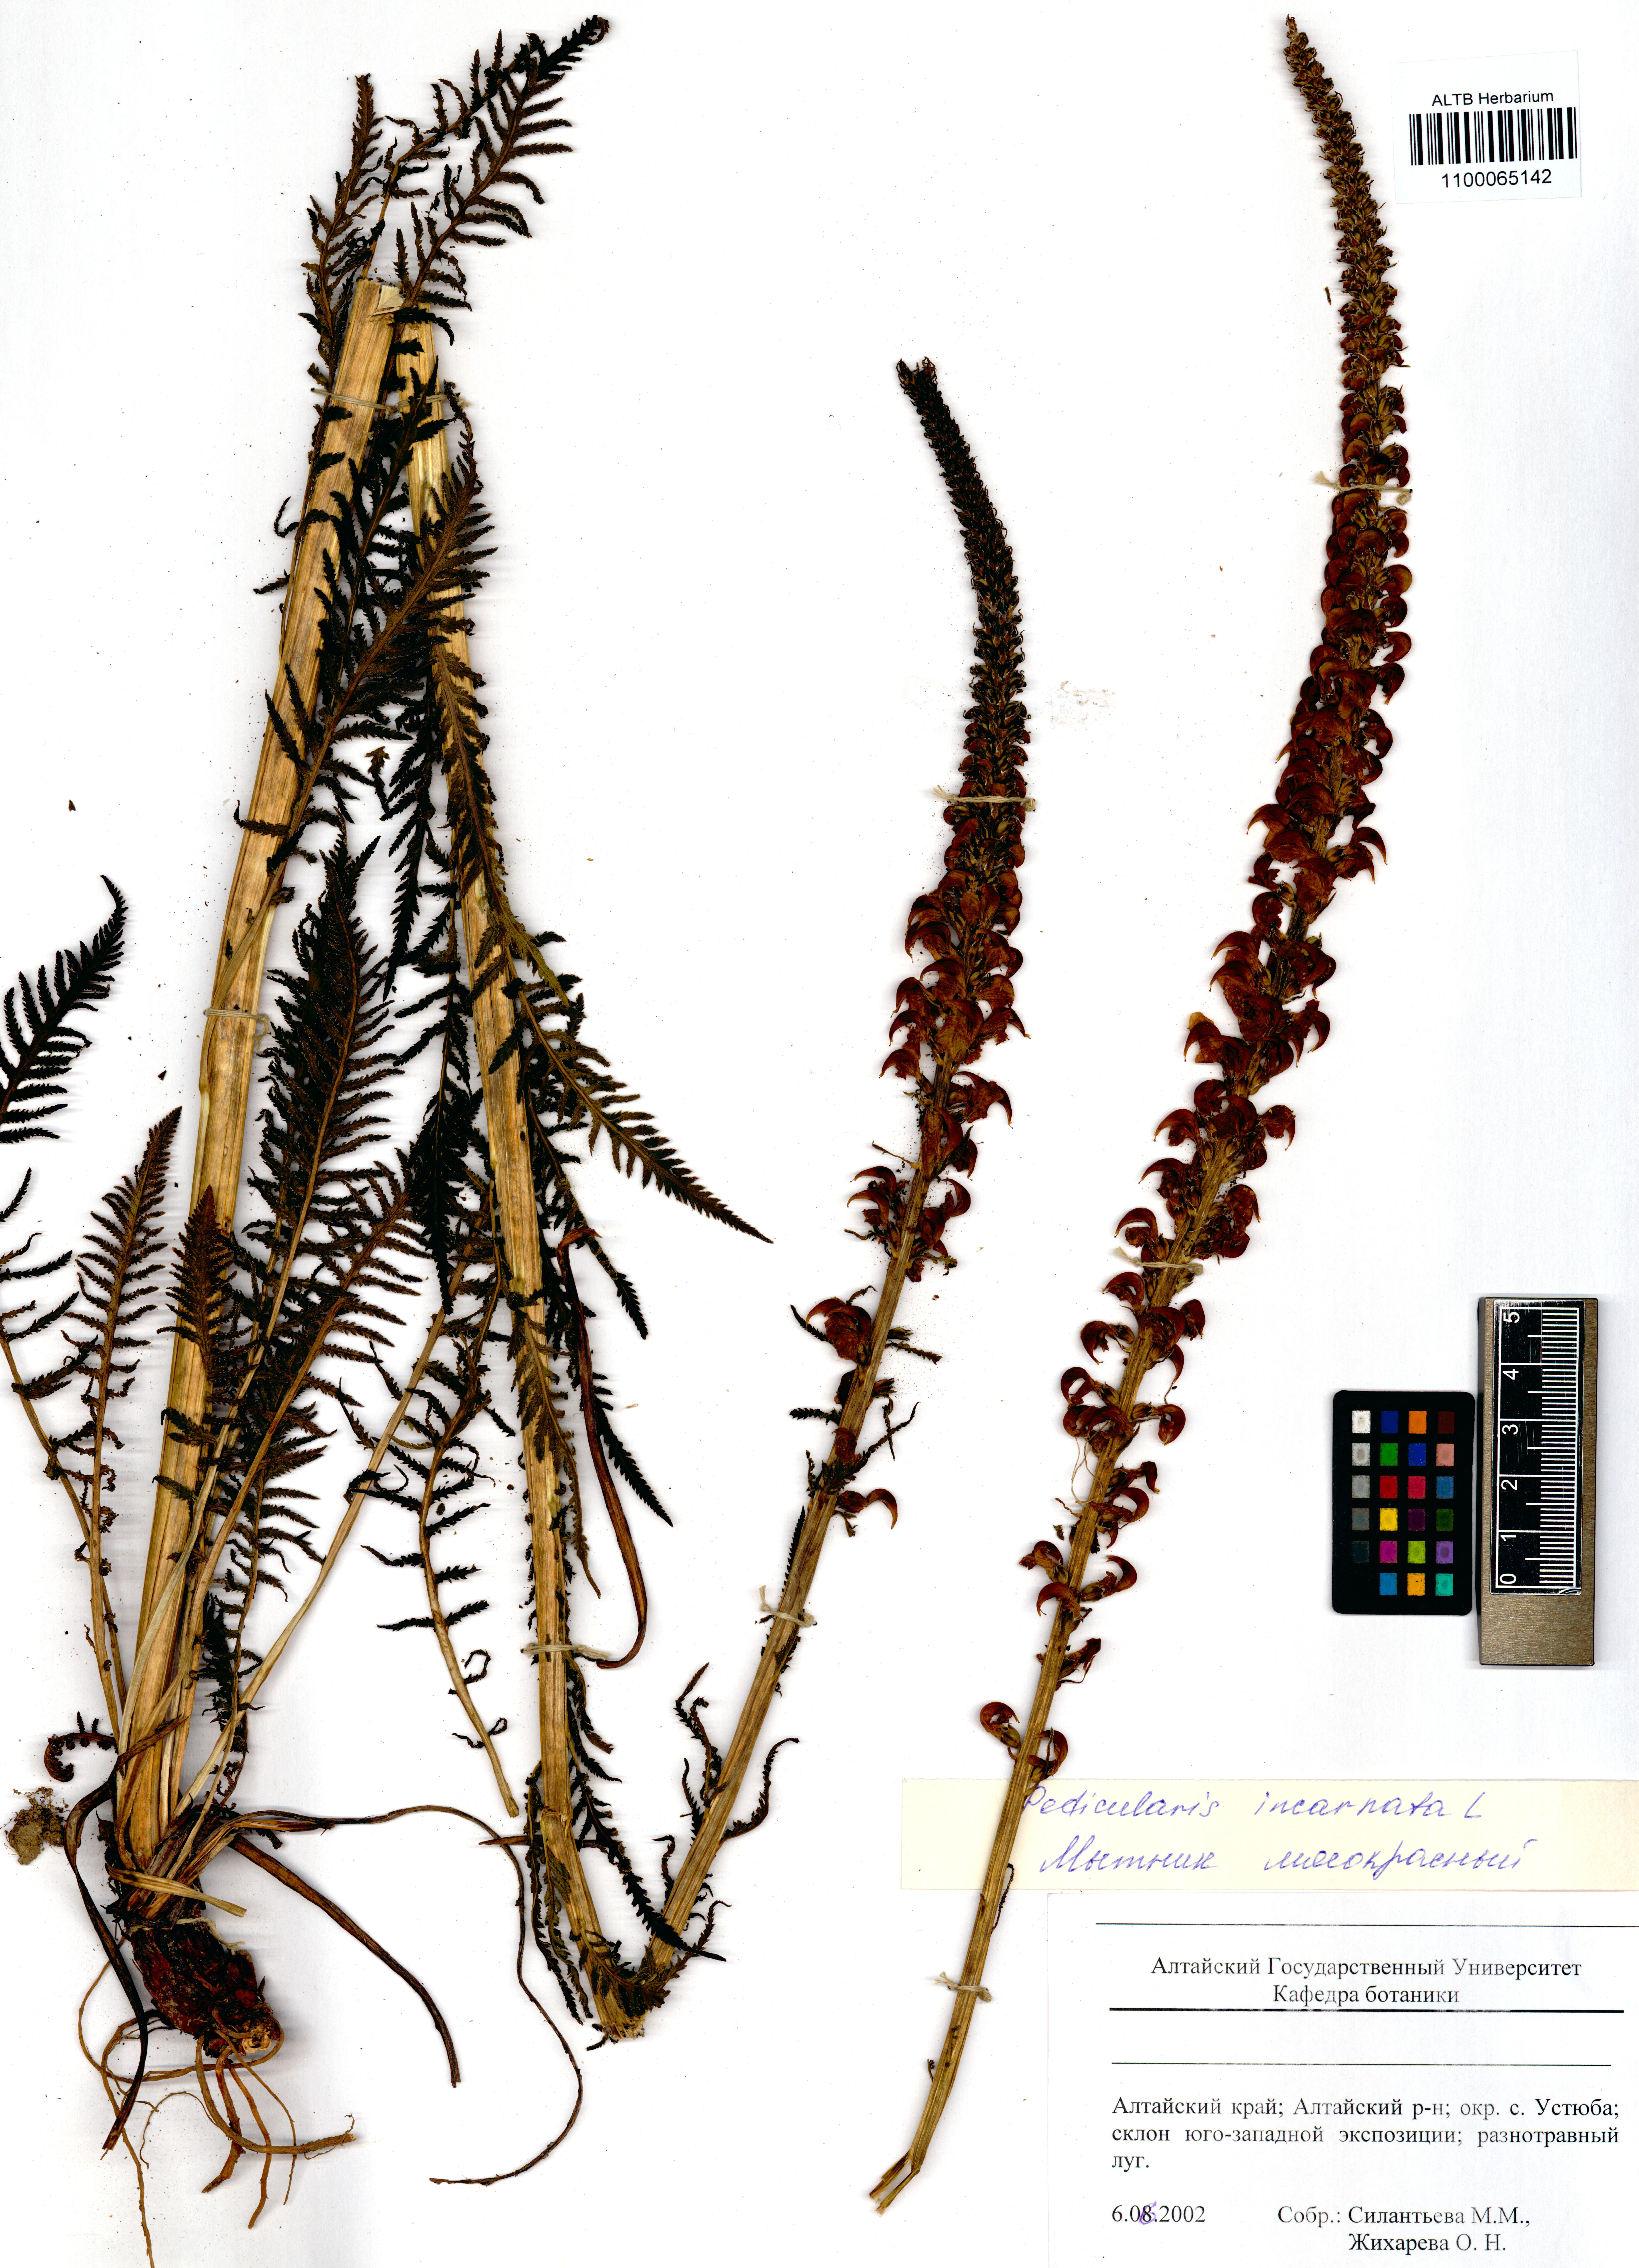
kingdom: Plantae
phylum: Tracheophyta
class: Magnoliopsida
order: Lamiales
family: Orobanchaceae
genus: Pedicularis
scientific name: Pedicularis incarnata
